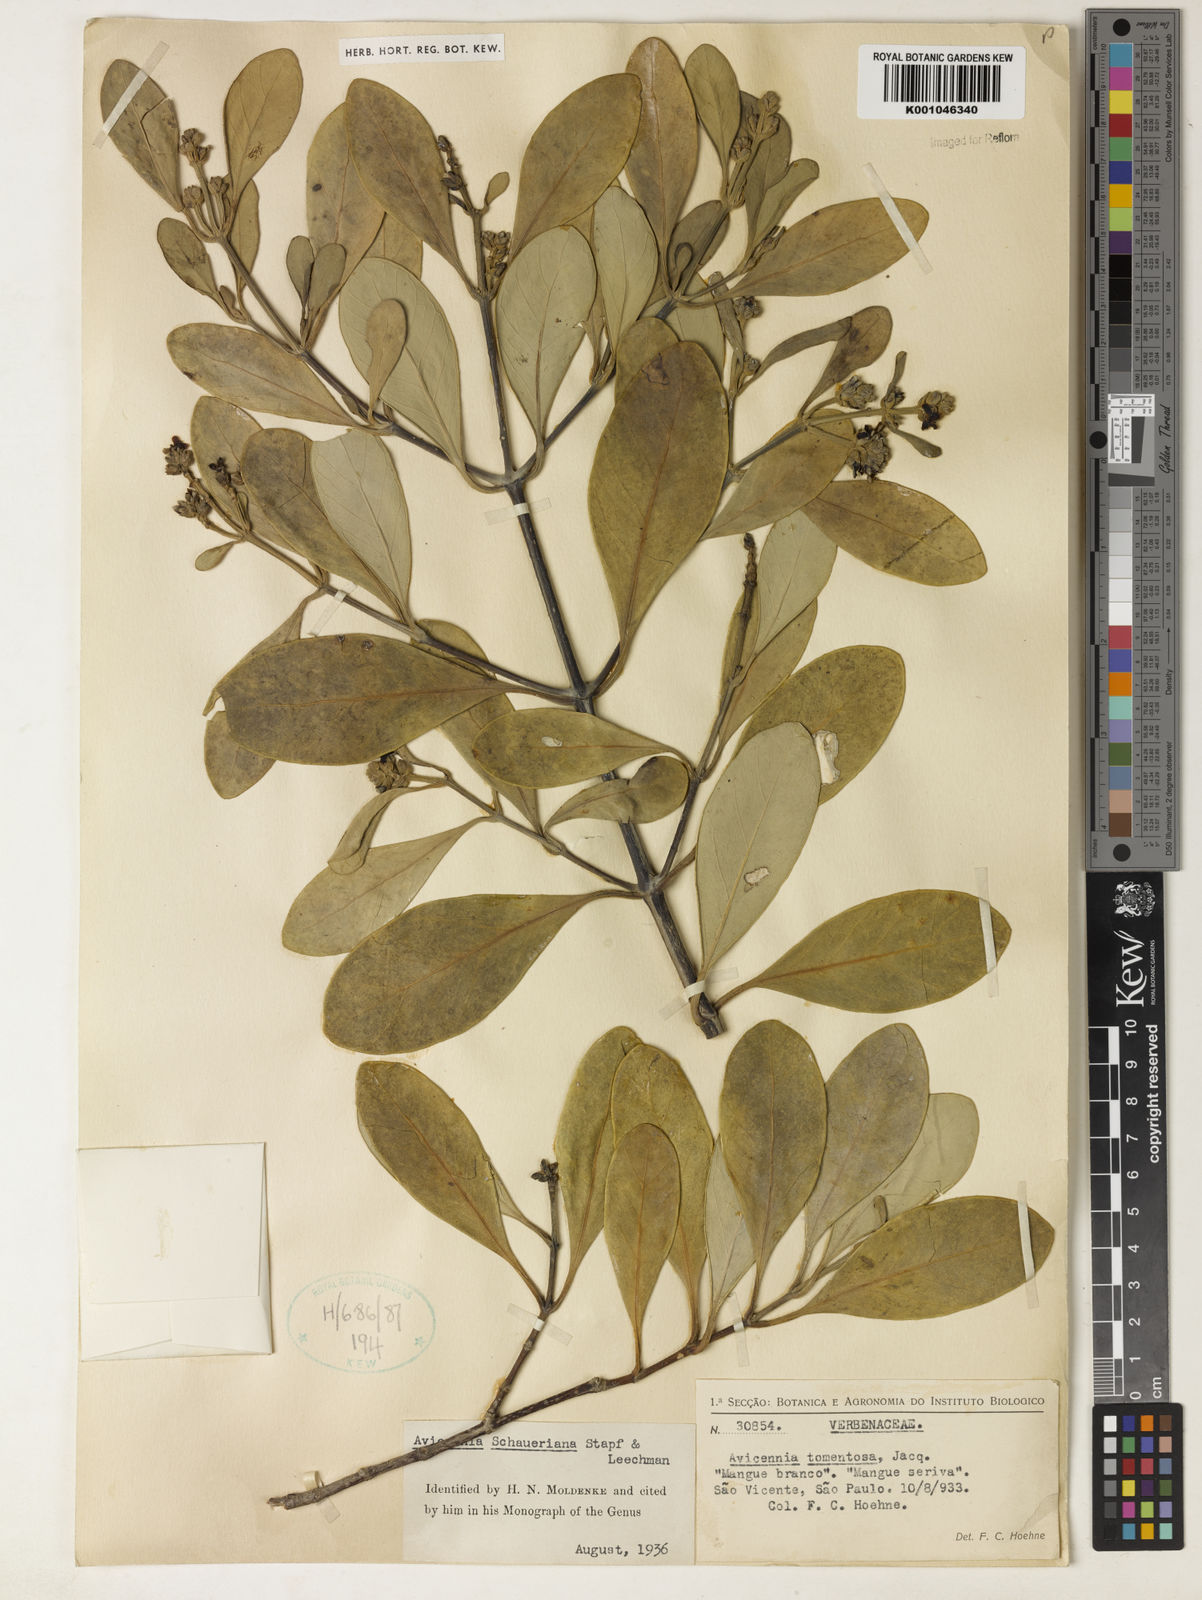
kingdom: Plantae
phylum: Tracheophyta
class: Magnoliopsida
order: Lamiales
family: Acanthaceae
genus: Avicennia
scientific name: Avicennia schaueriana
